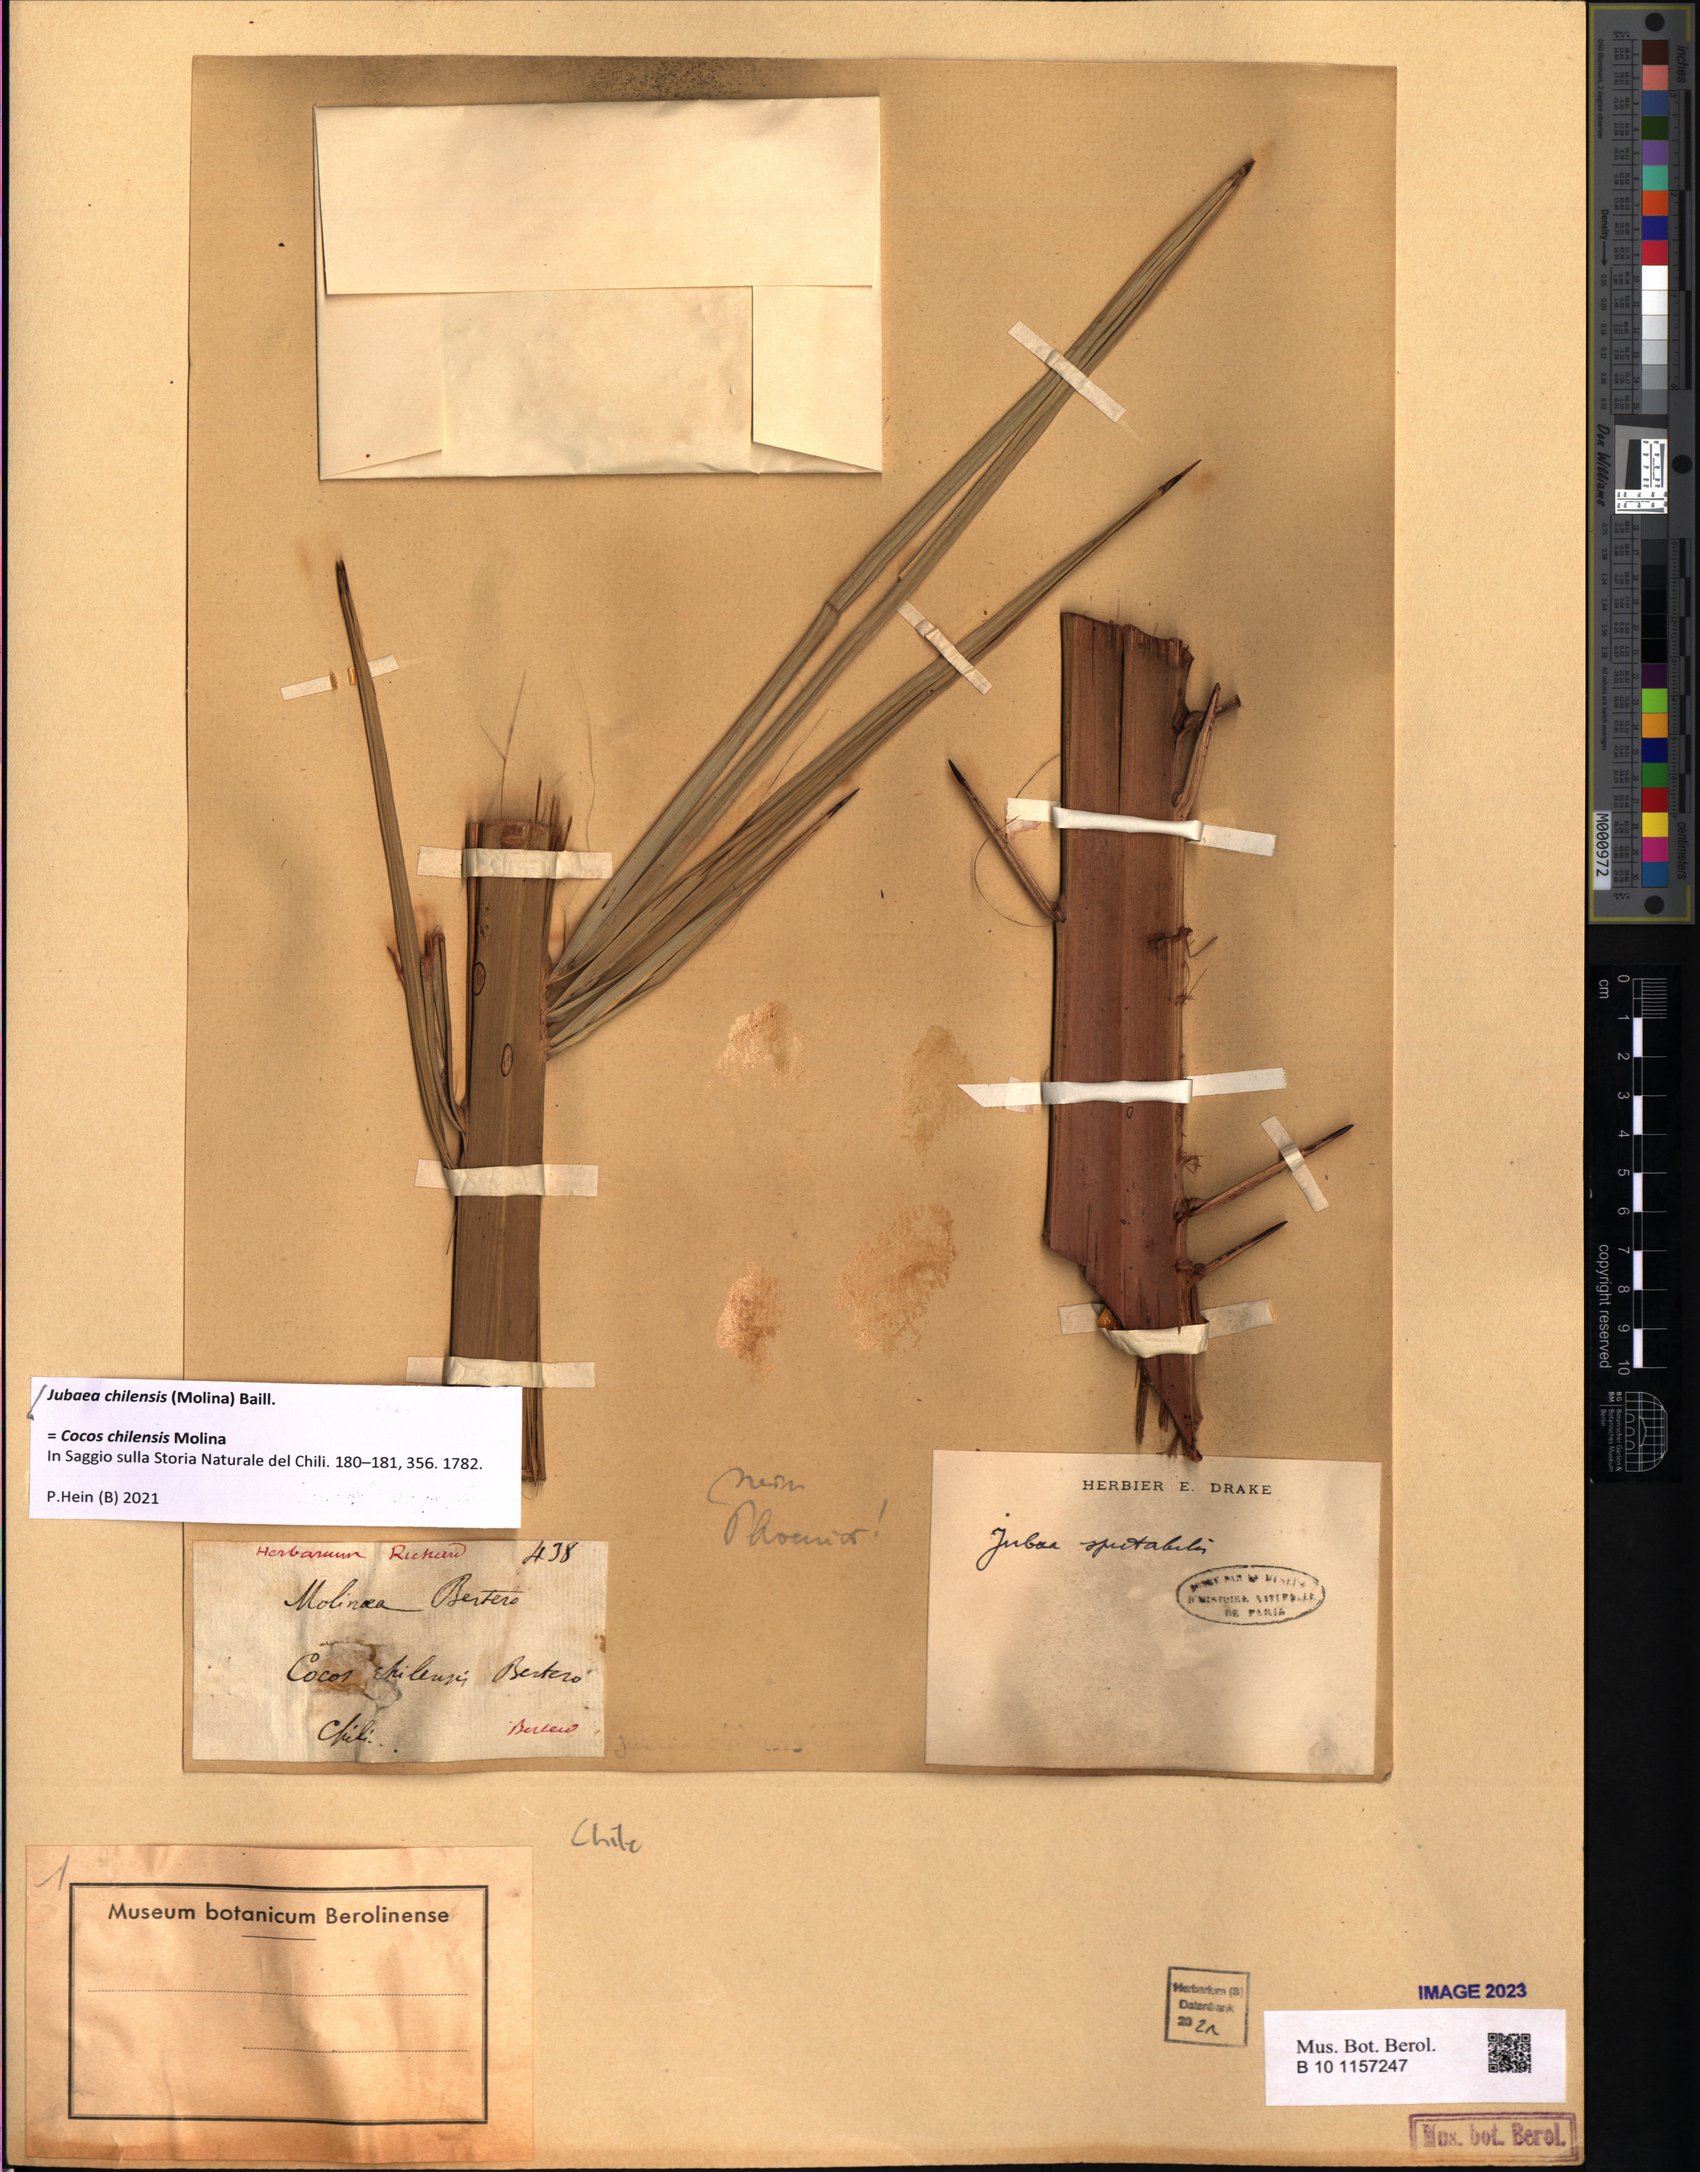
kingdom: Plantae
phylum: Tracheophyta
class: Liliopsida
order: Arecales
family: Arecaceae
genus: Jubaea
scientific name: Jubaea chilensis
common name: Coquito palm
